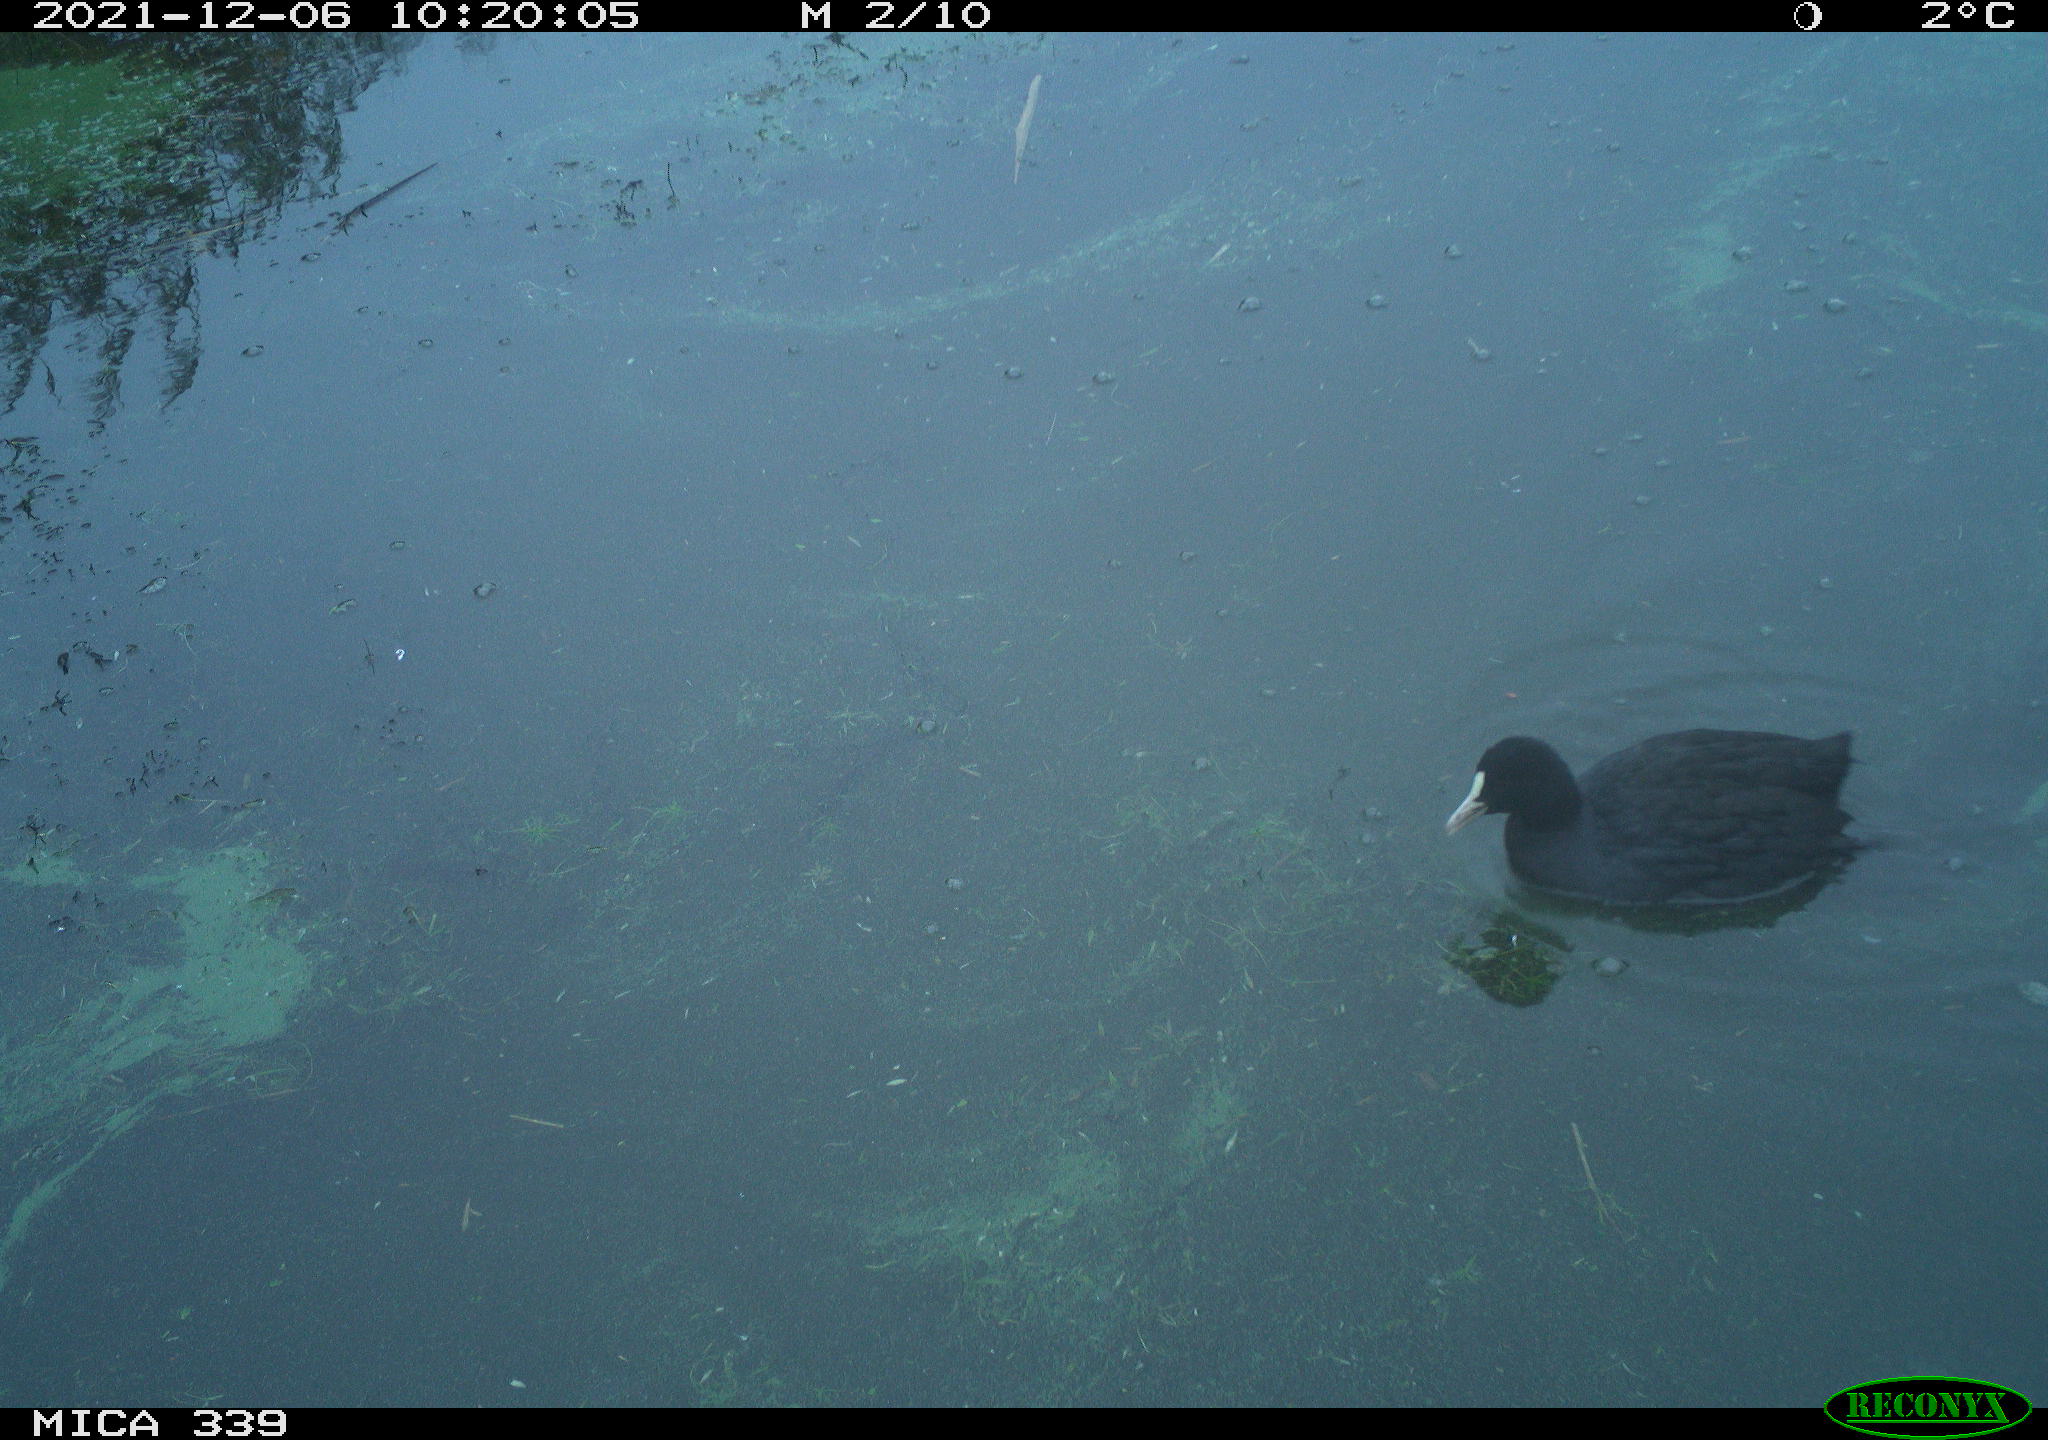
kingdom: Animalia
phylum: Chordata
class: Aves
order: Gruiformes
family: Rallidae
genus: Fulica
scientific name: Fulica atra
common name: Eurasian coot
